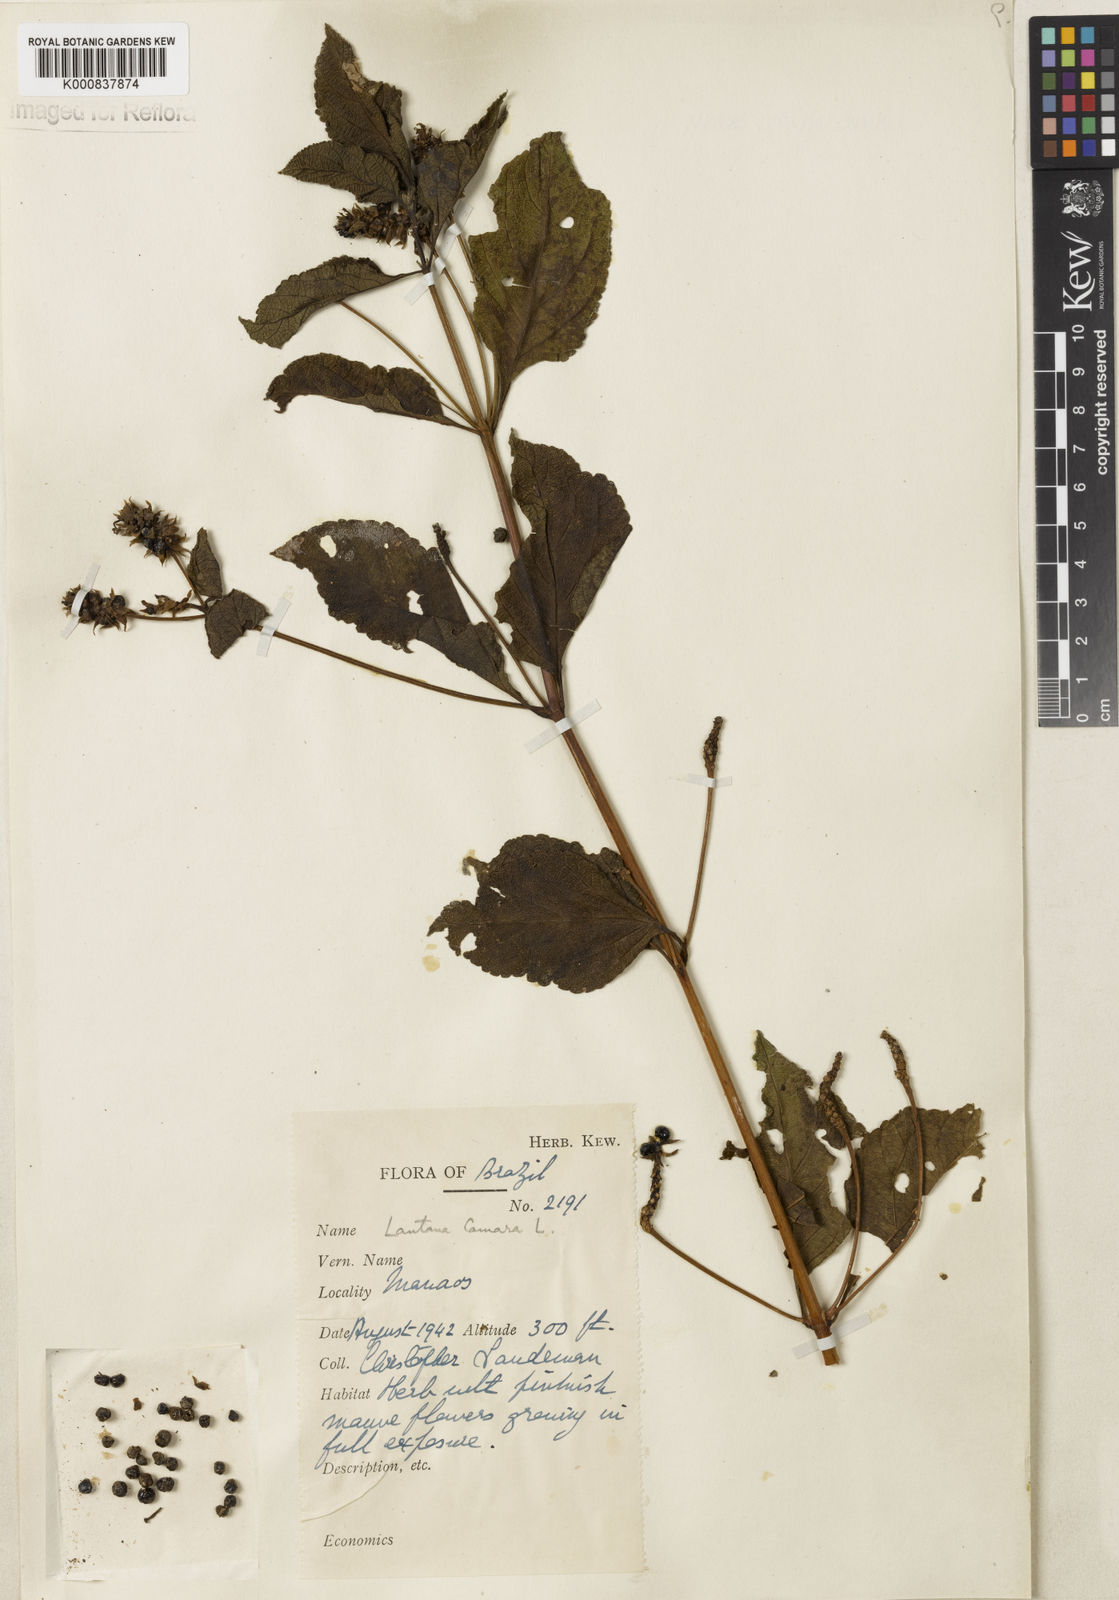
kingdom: Plantae
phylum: Tracheophyta
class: Magnoliopsida
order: Lamiales
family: Verbenaceae
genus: Lantana
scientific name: Lantana cujabensis
